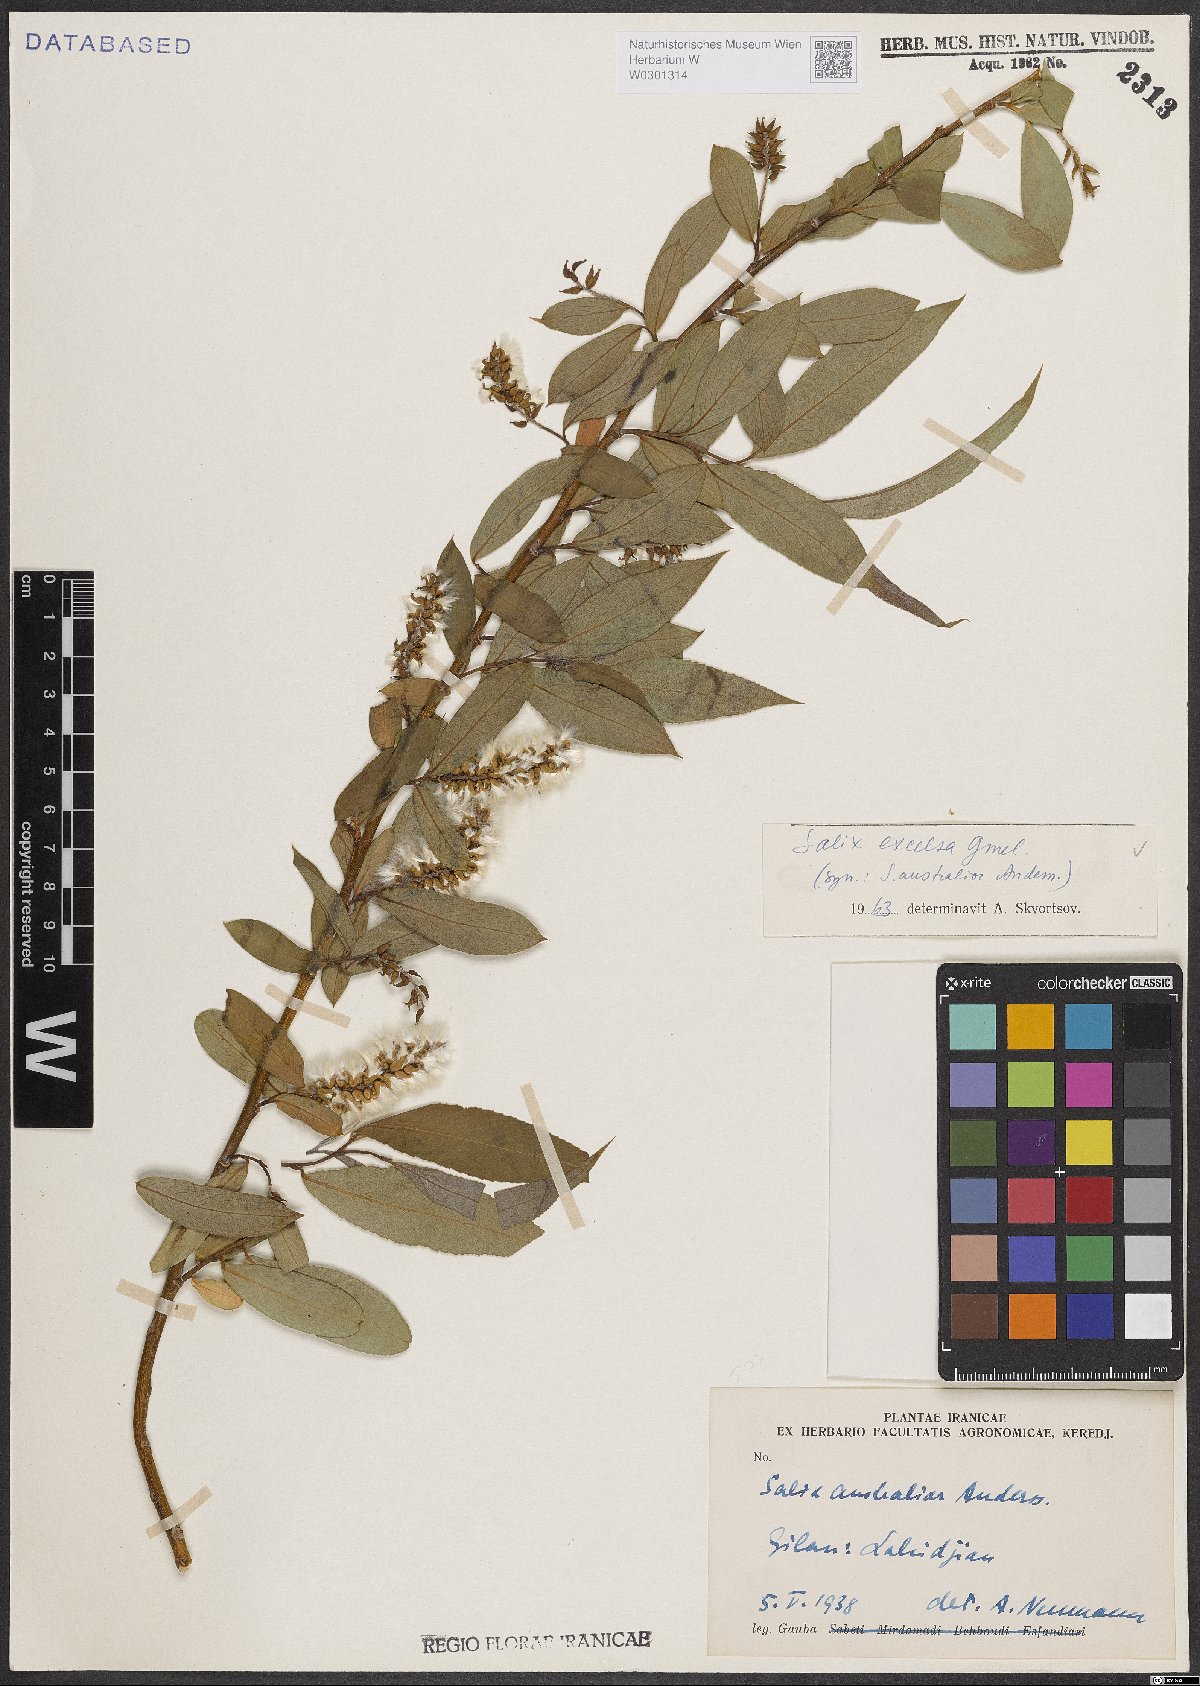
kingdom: Plantae
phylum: Tracheophyta
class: Magnoliopsida
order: Malpighiales
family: Salicaceae
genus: Salix
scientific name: Salix excelsa
